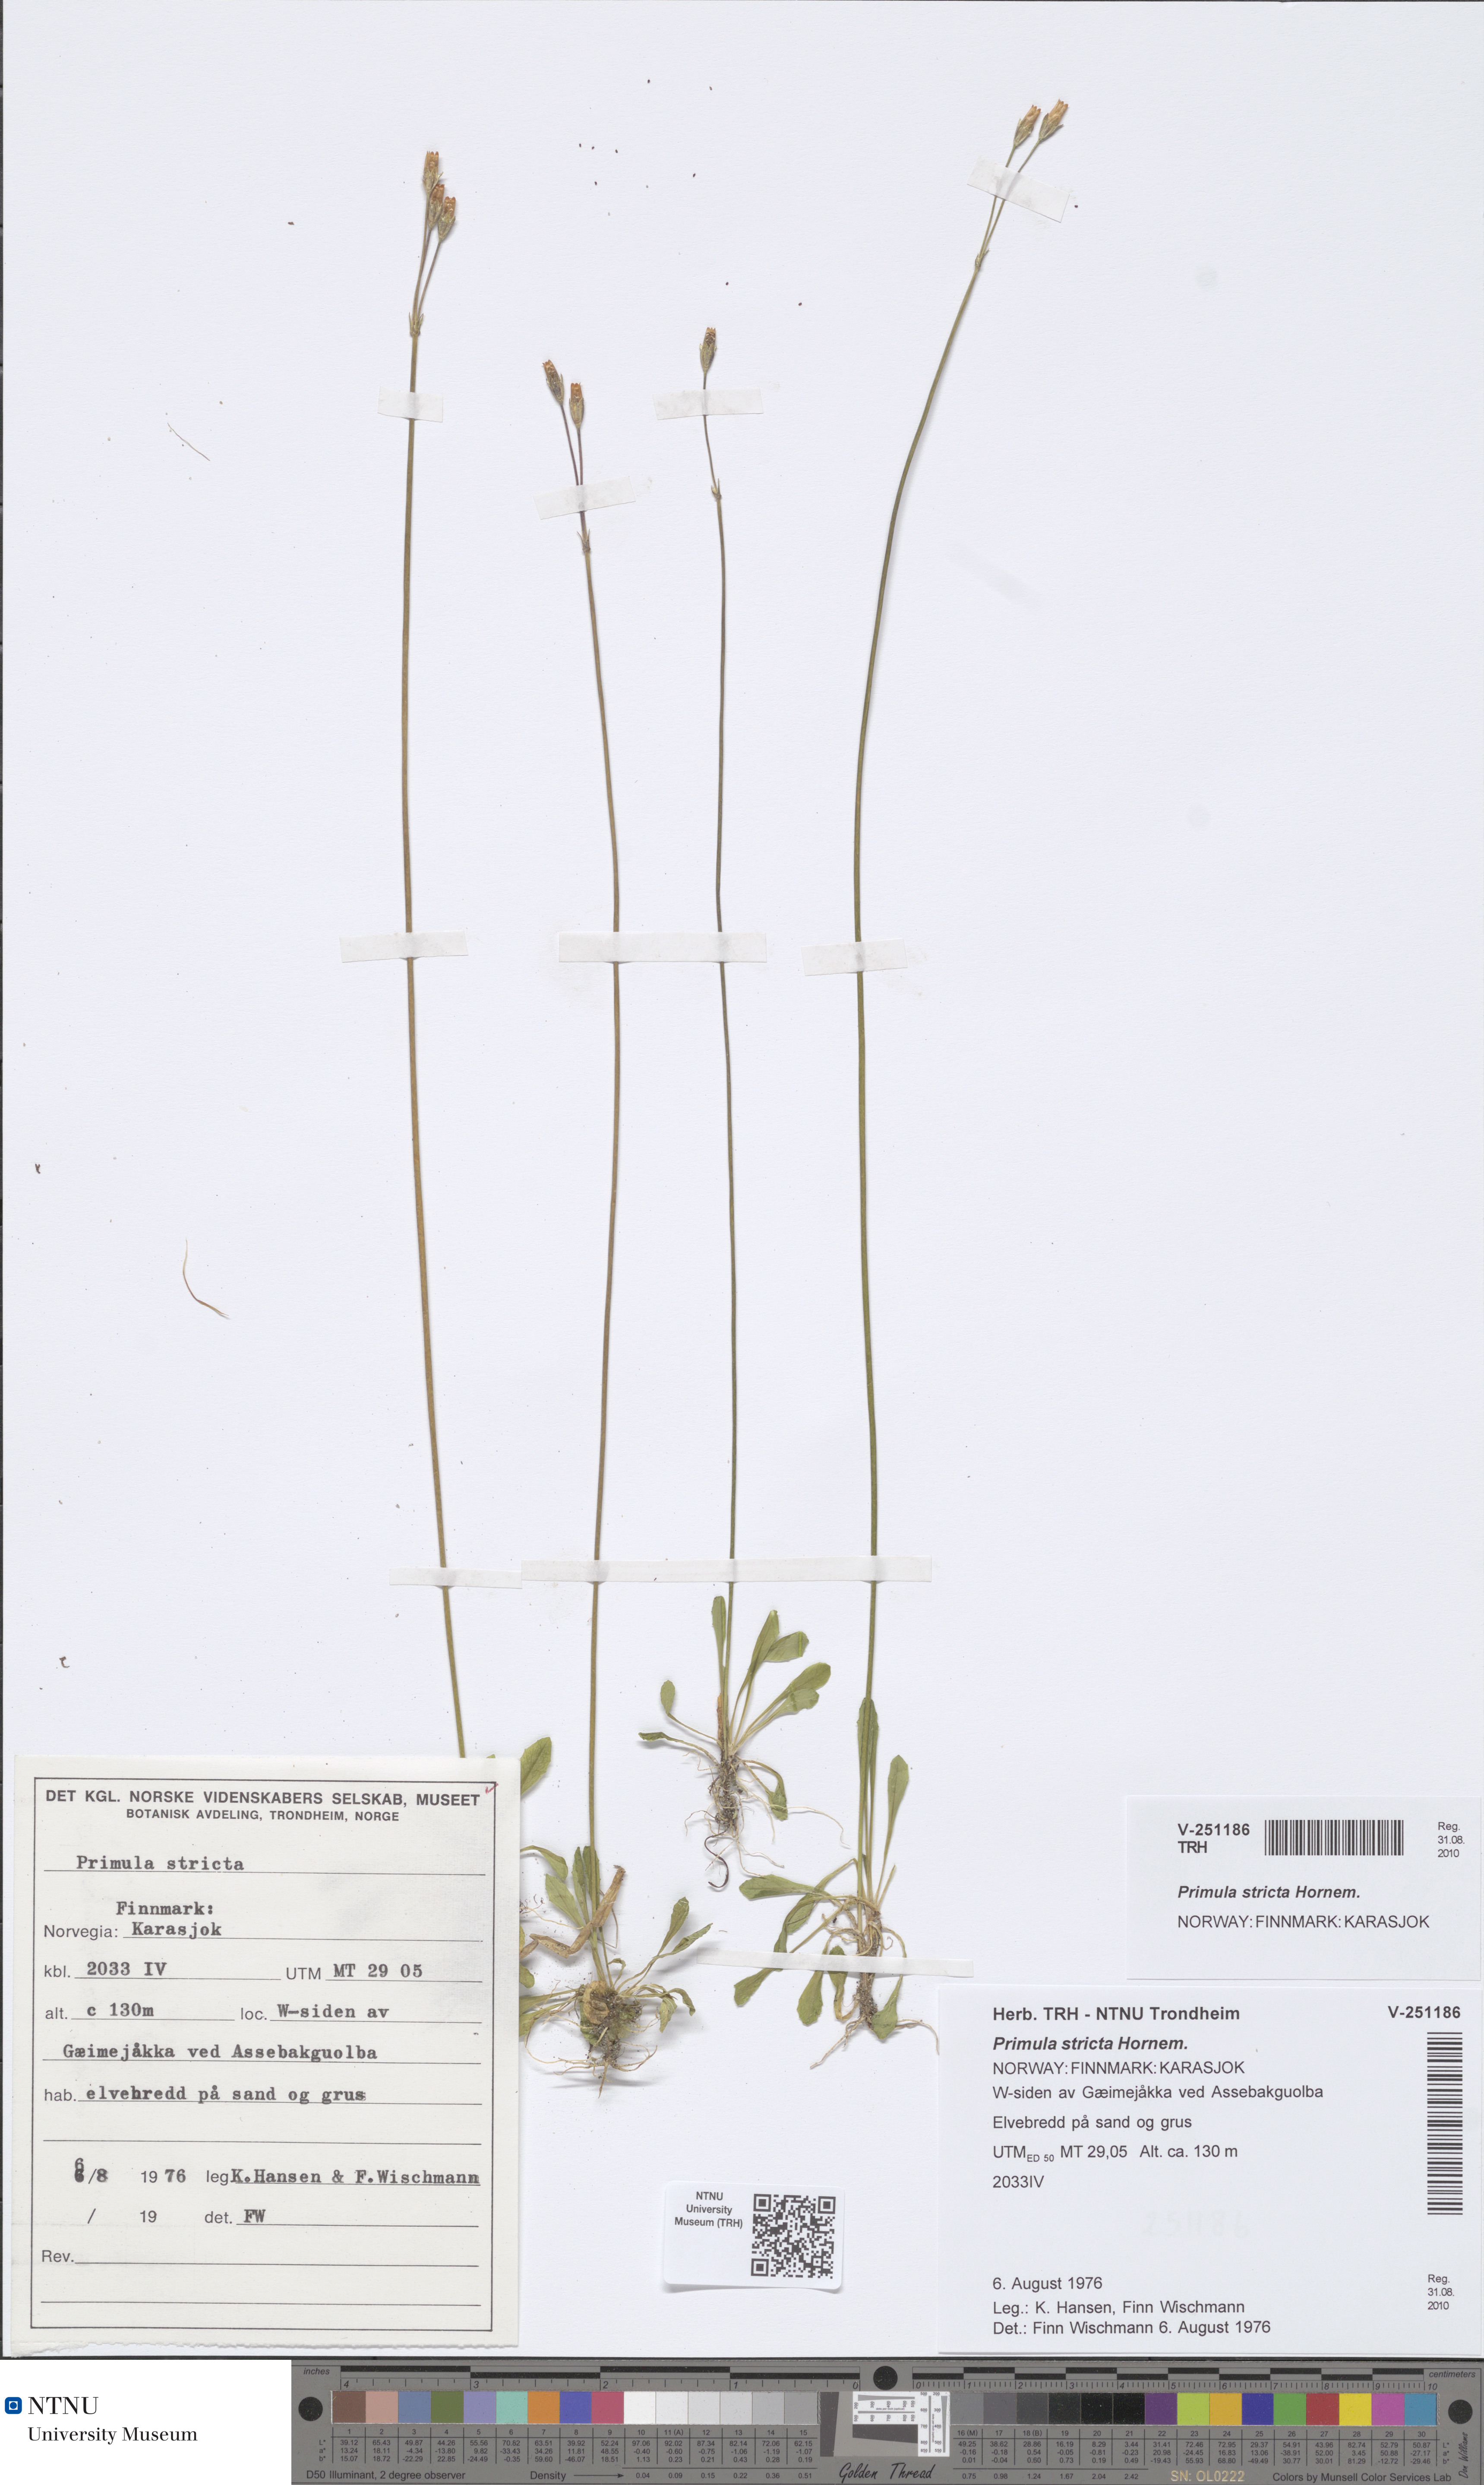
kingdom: Plantae
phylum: Tracheophyta
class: Magnoliopsida
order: Ericales
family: Primulaceae
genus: Primula
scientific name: Primula stricta
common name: Coastal primrose
